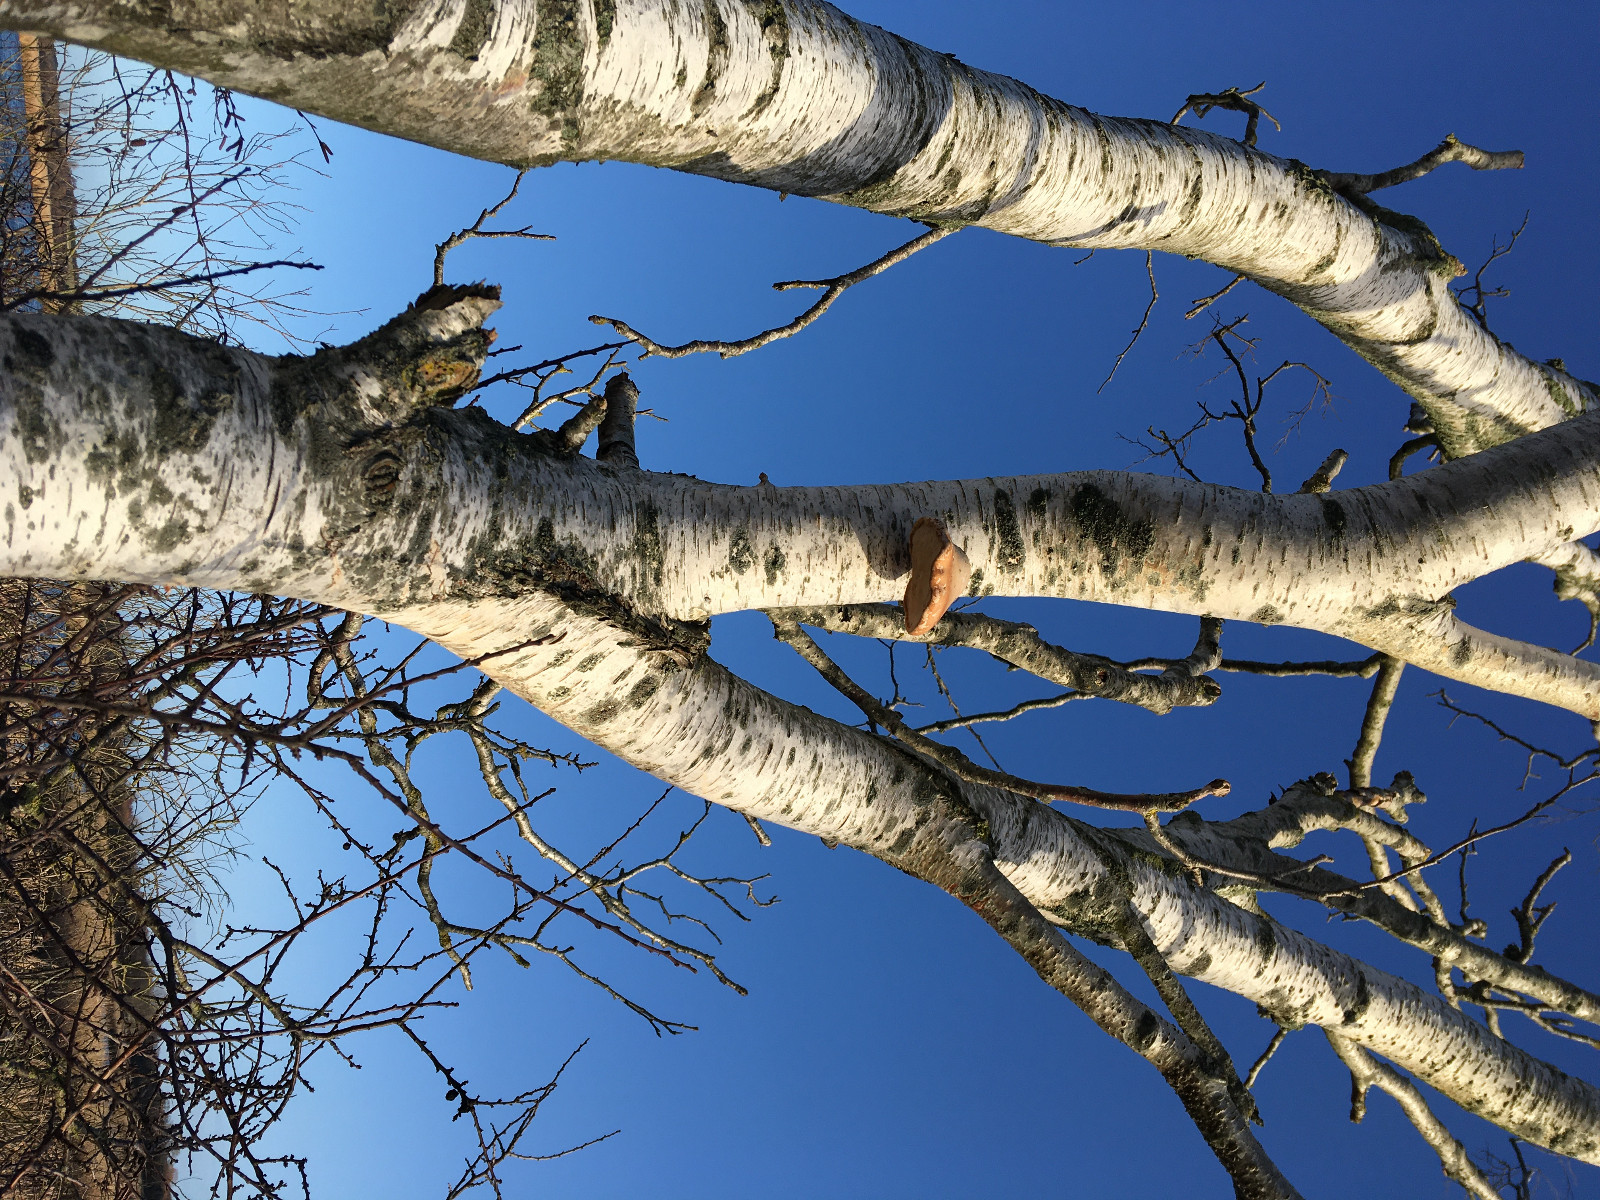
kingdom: Fungi
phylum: Basidiomycota
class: Agaricomycetes
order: Polyporales
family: Fomitopsidaceae
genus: Fomitopsis
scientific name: Fomitopsis betulina
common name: birkeporesvamp
